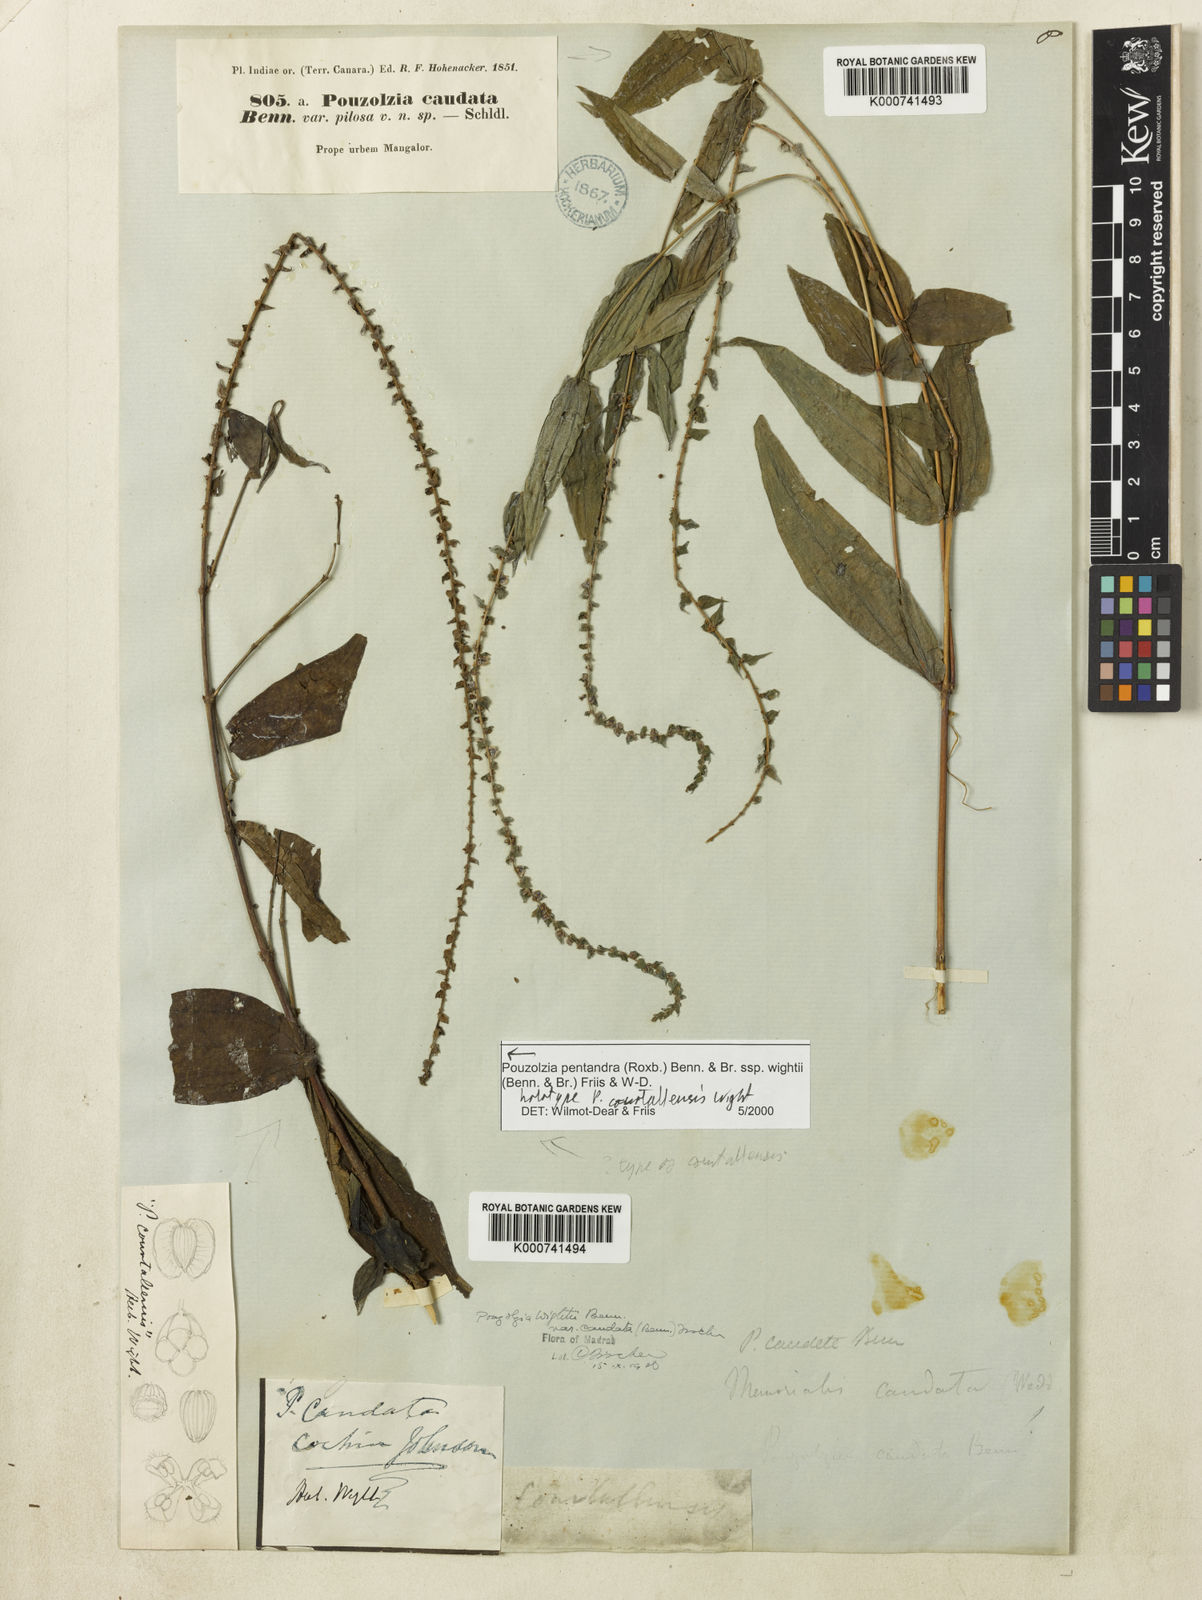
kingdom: Plantae
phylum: Tracheophyta
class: Magnoliopsida
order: Rosales
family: Urticaceae
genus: Gonostegia
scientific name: Gonostegia pentandra
